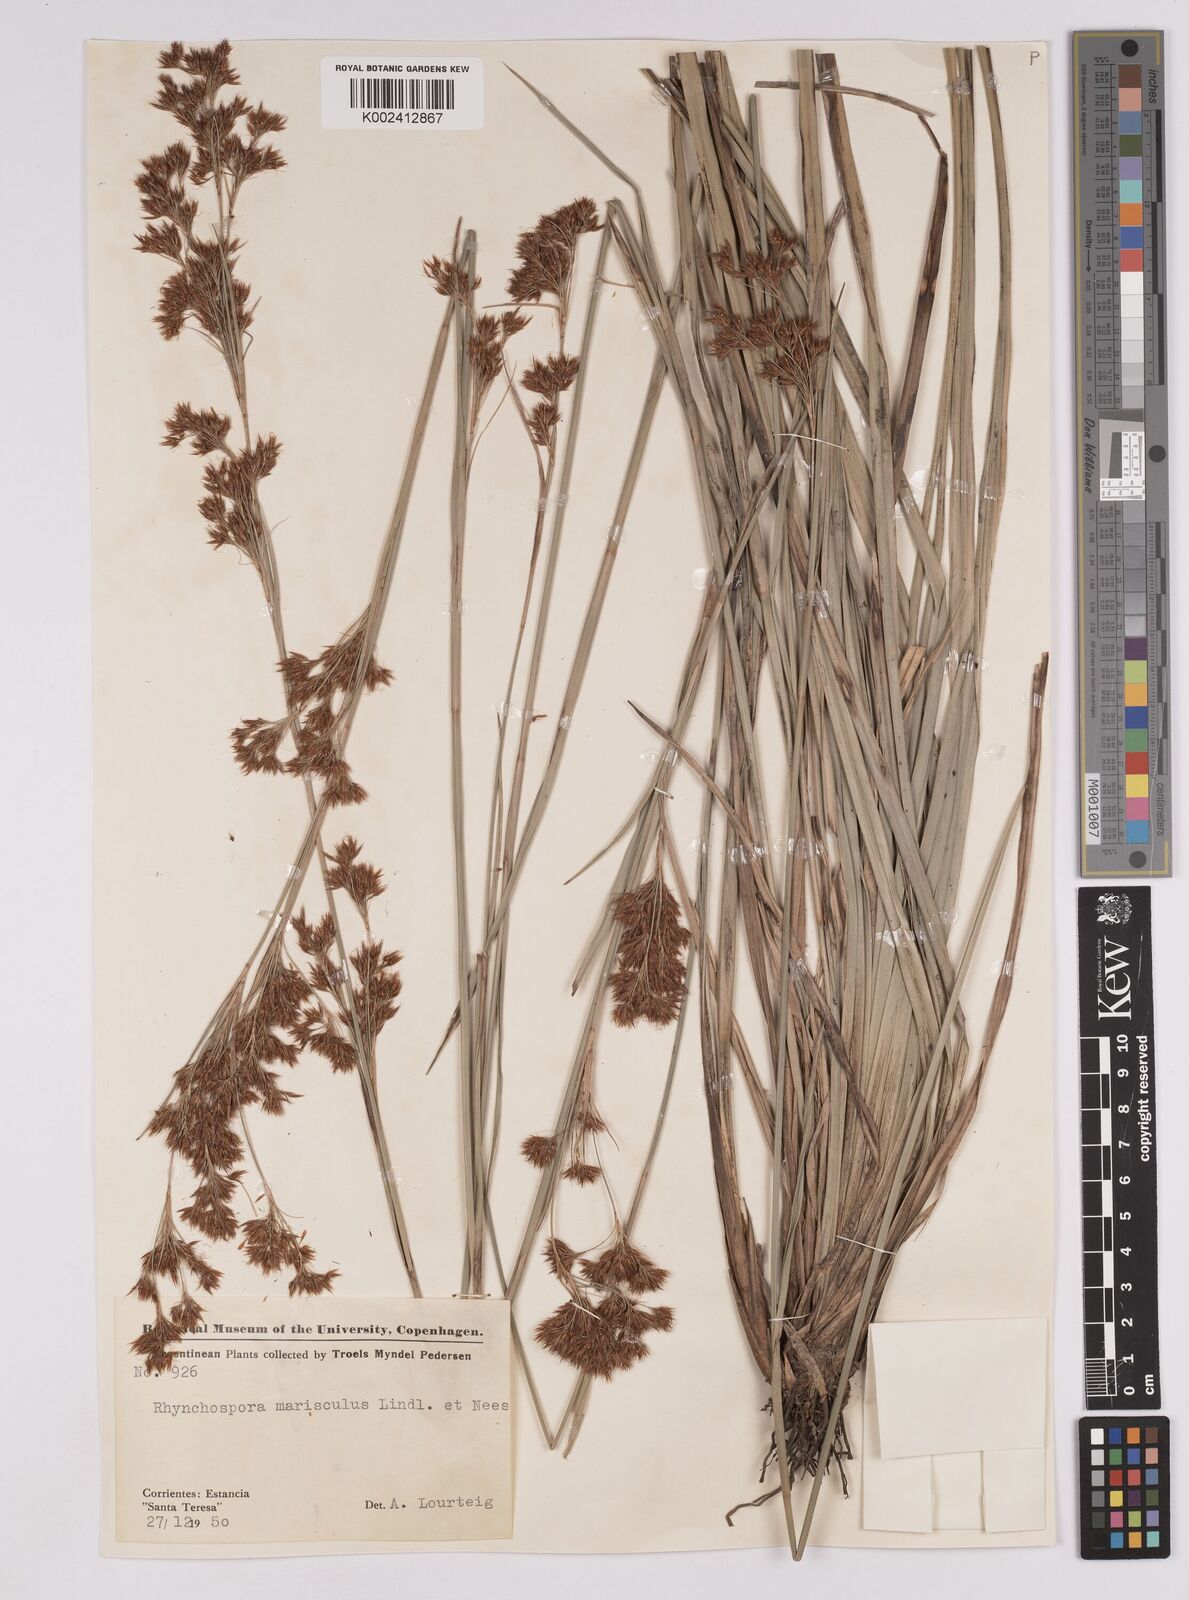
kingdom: Plantae
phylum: Tracheophyta
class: Liliopsida
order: Poales
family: Cyperaceae
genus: Rhynchospora
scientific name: Rhynchospora marisculus
